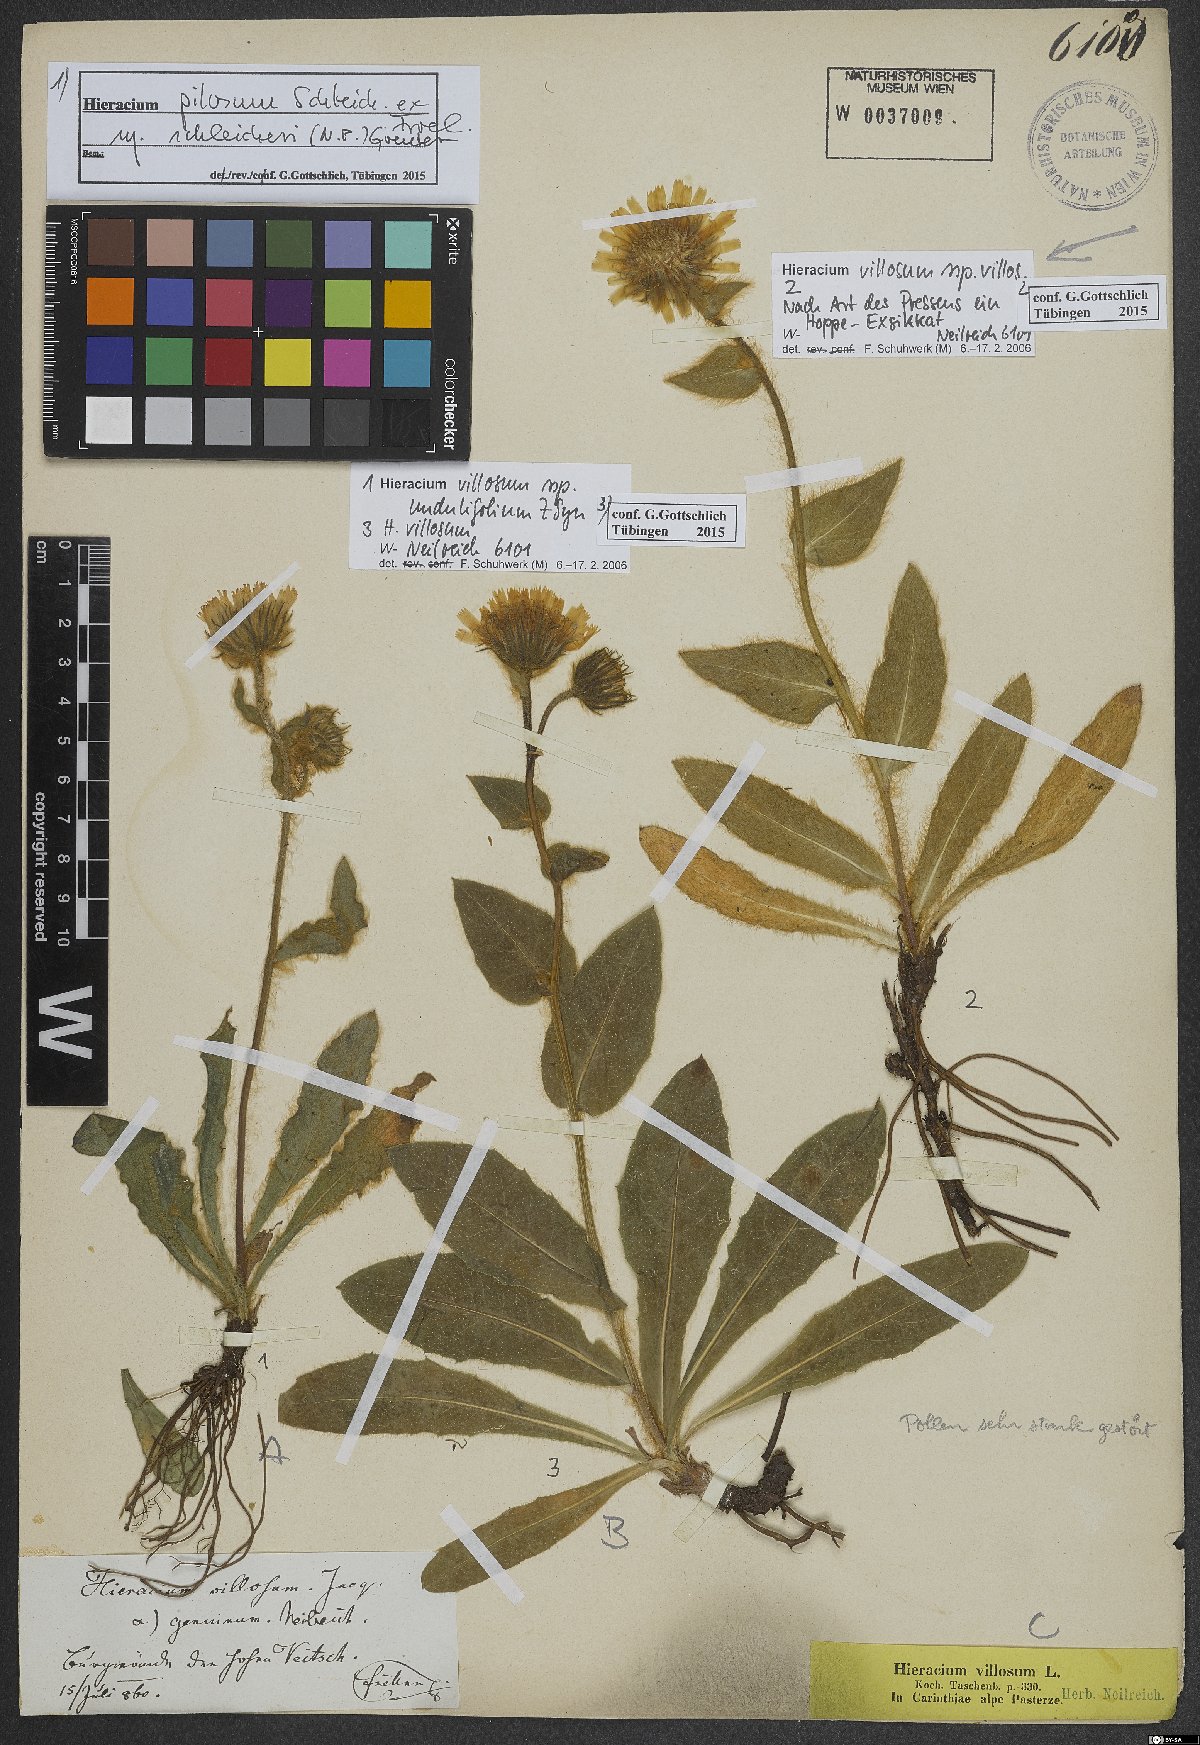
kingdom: Plantae
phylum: Tracheophyta
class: Magnoliopsida
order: Asterales
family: Asteraceae
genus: Hieracium
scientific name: Hieracium villosum
